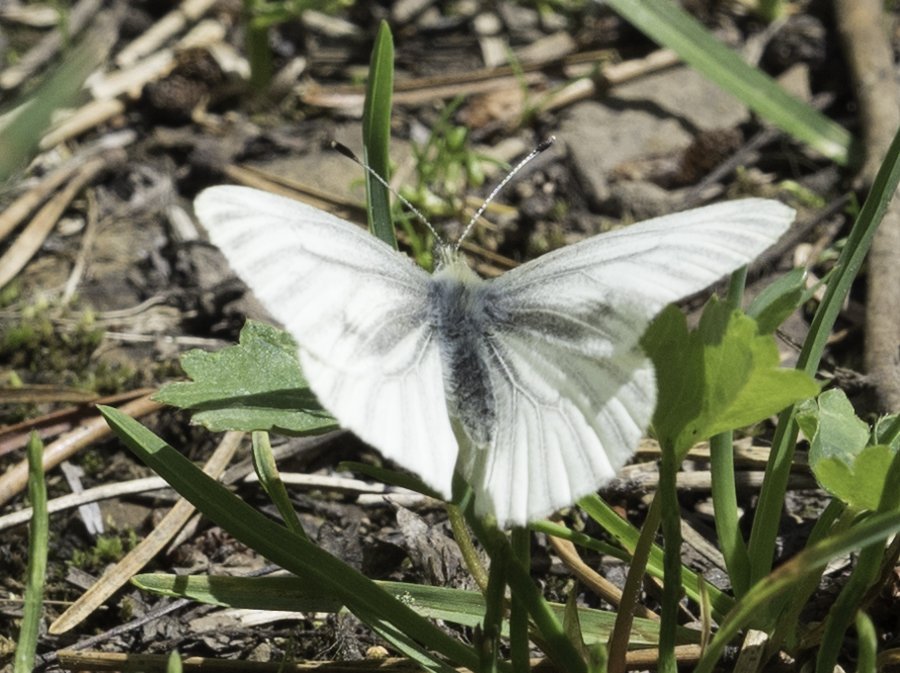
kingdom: Animalia
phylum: Arthropoda
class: Insecta
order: Lepidoptera
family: Pieridae
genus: Pieris
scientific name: Pieris marginalis
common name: Margined White
